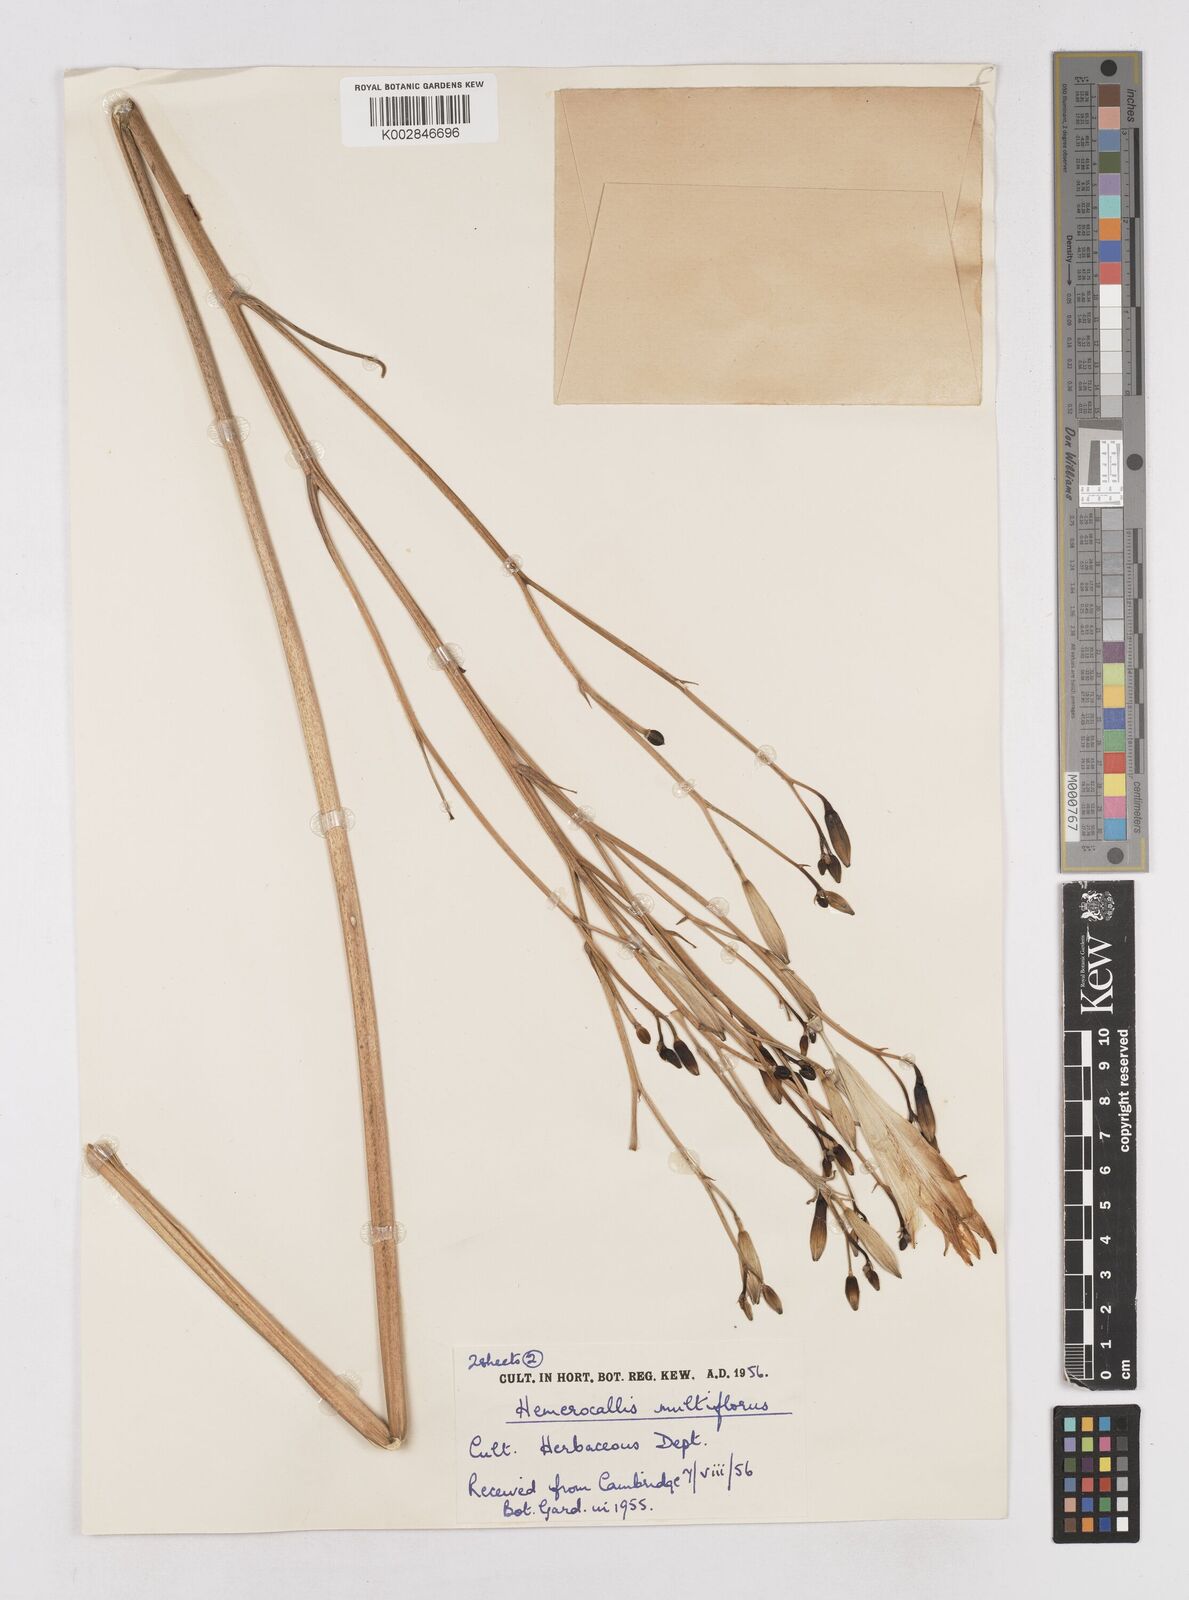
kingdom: Plantae
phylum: Tracheophyta
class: Liliopsida
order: Asparagales
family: Asphodelaceae
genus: Hemerocallis
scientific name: Hemerocallis multiflora
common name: Many-flower day-lily
